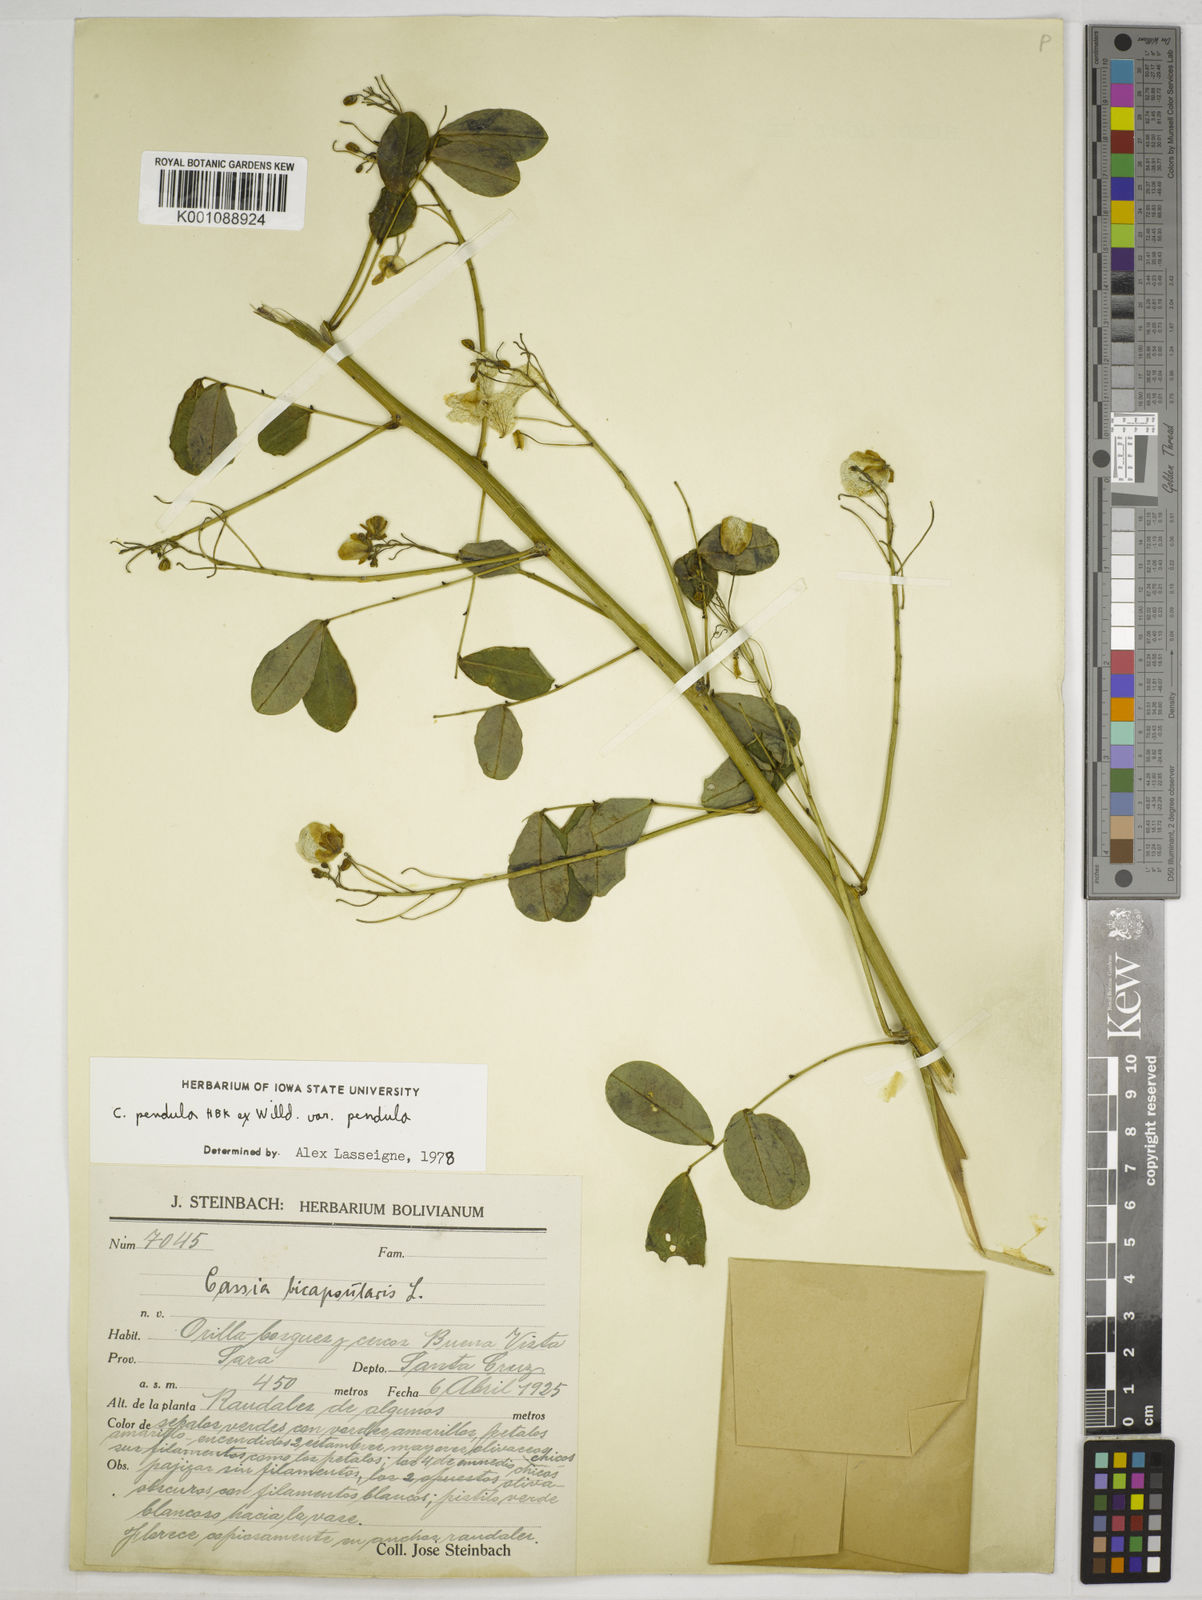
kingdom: Plantae
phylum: Tracheophyta
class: Magnoliopsida
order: Fabales
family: Fabaceae
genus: Senna
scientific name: Senna pendula
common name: Easter cassia
